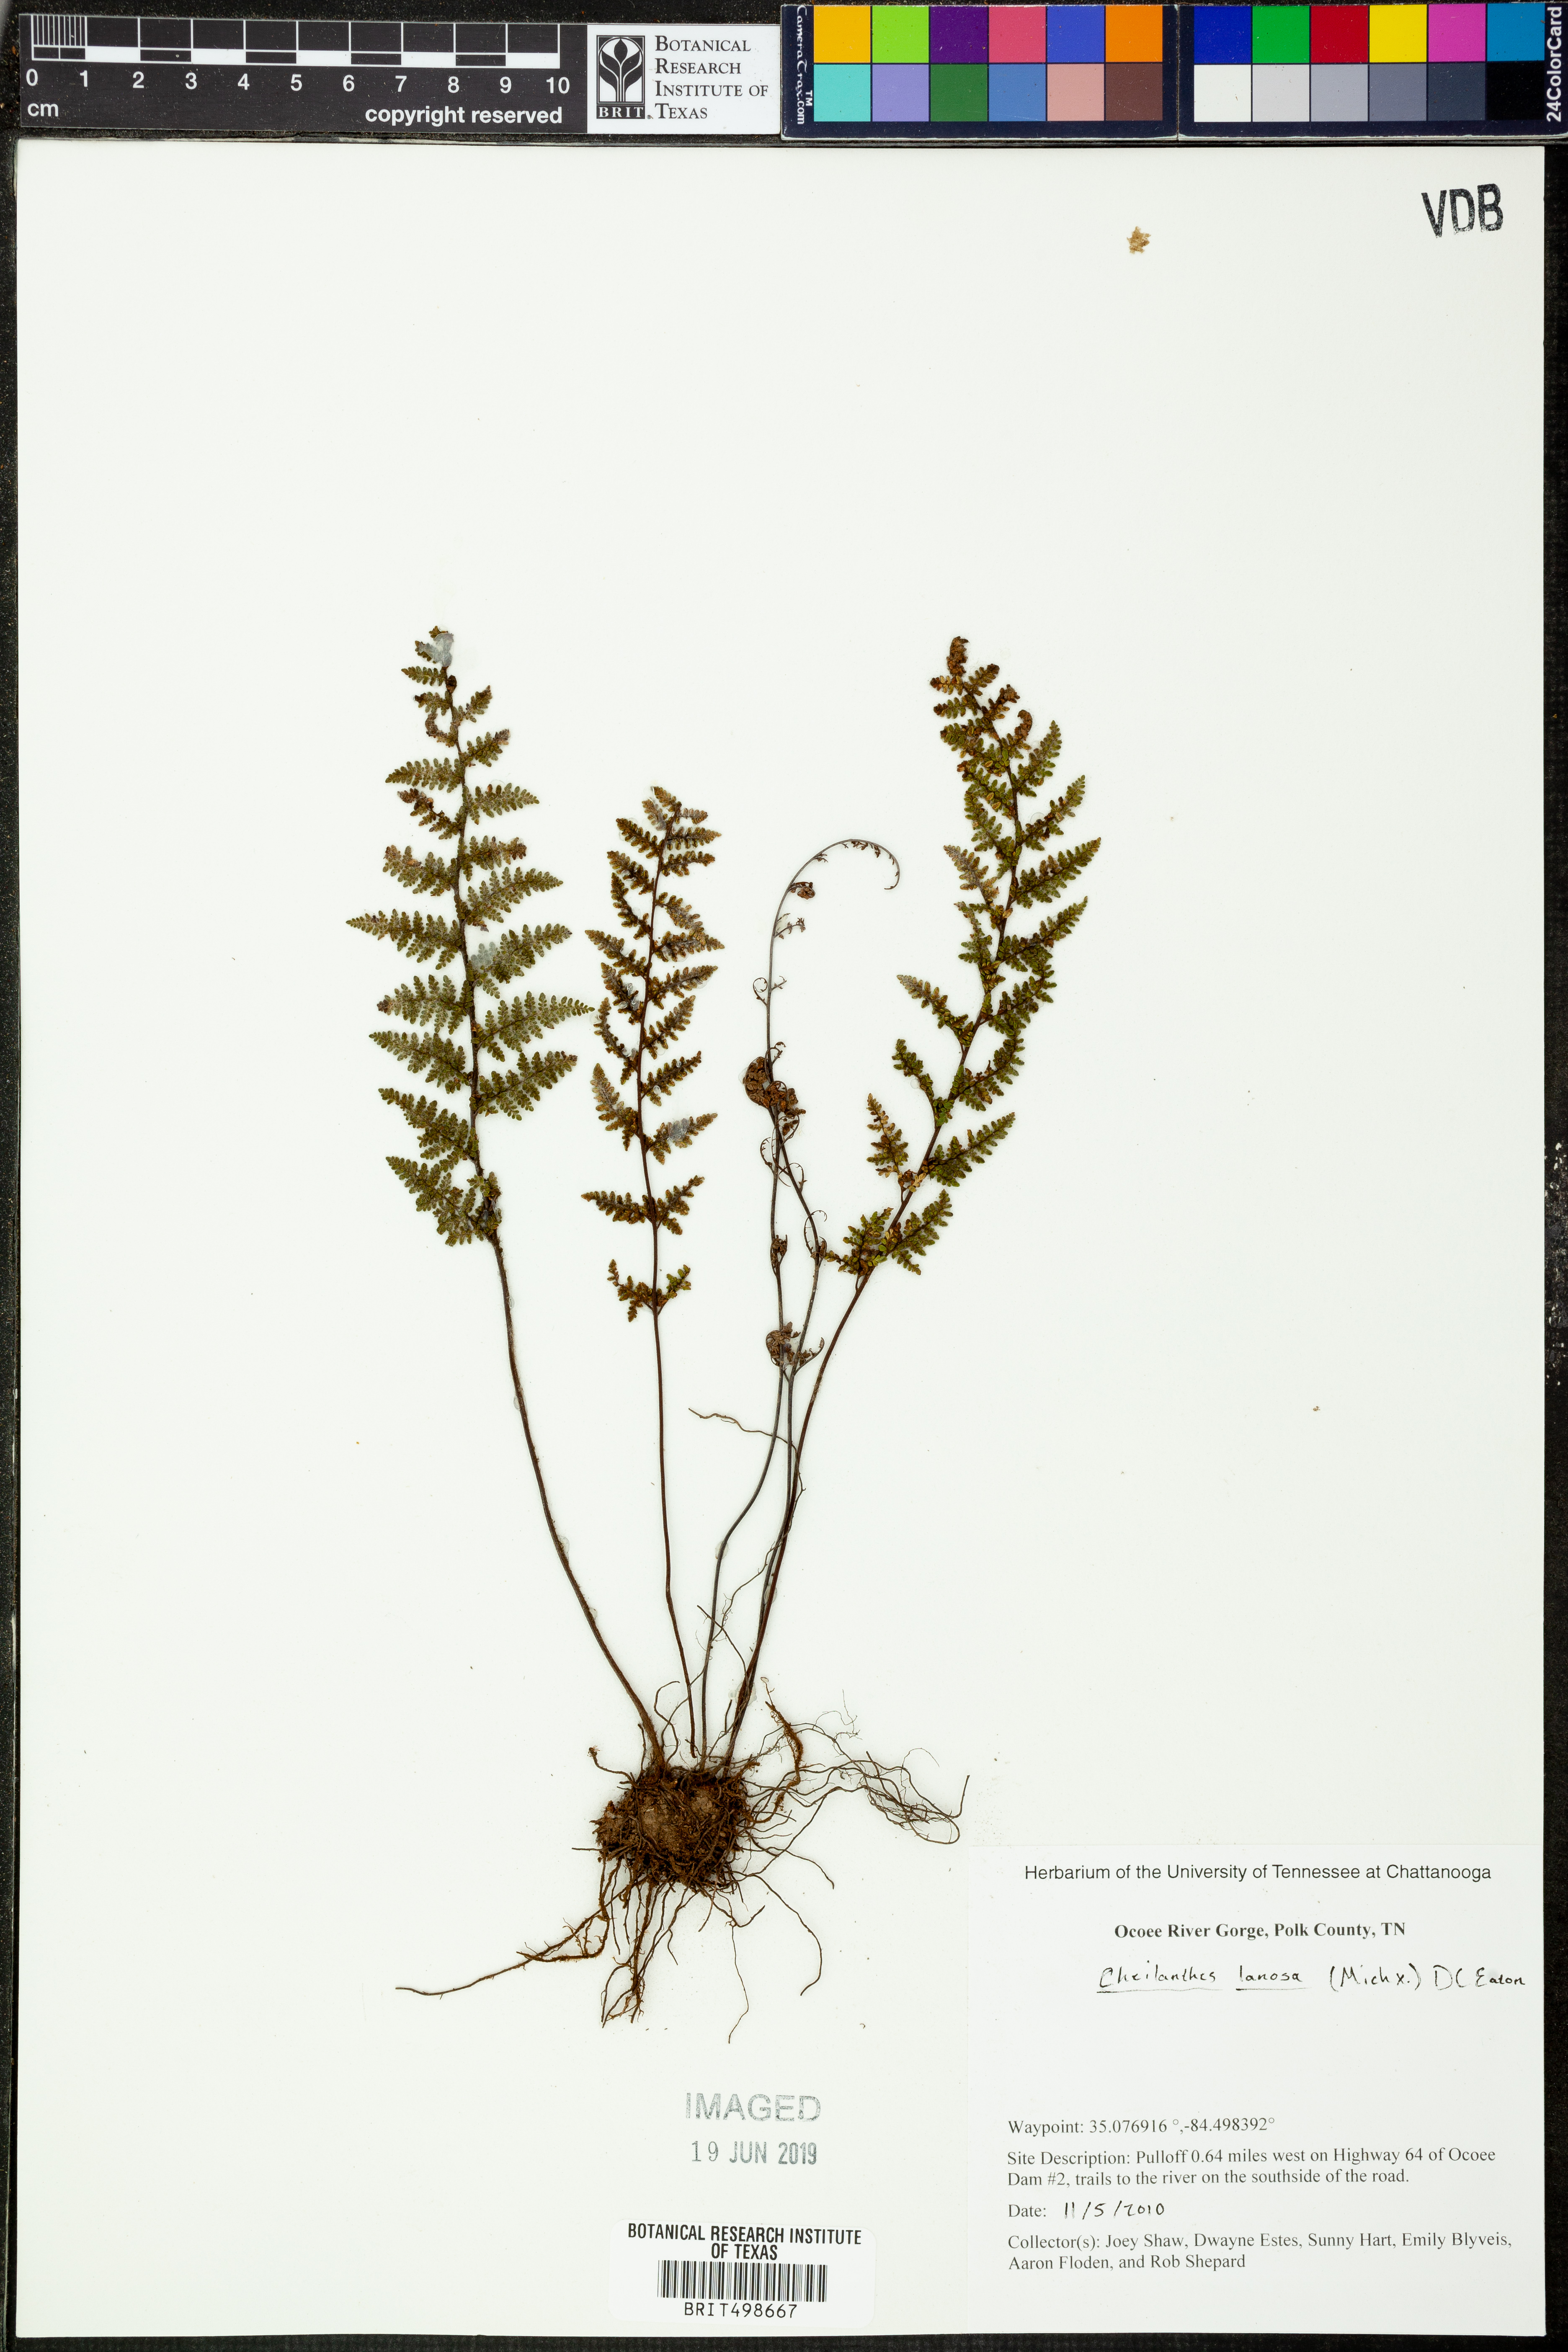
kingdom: Plantae
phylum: Tracheophyta
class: Polypodiopsida
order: Polypodiales
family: Pteridaceae
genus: Myriopteris
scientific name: Myriopteris lanosa
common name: Hairy lip fern
